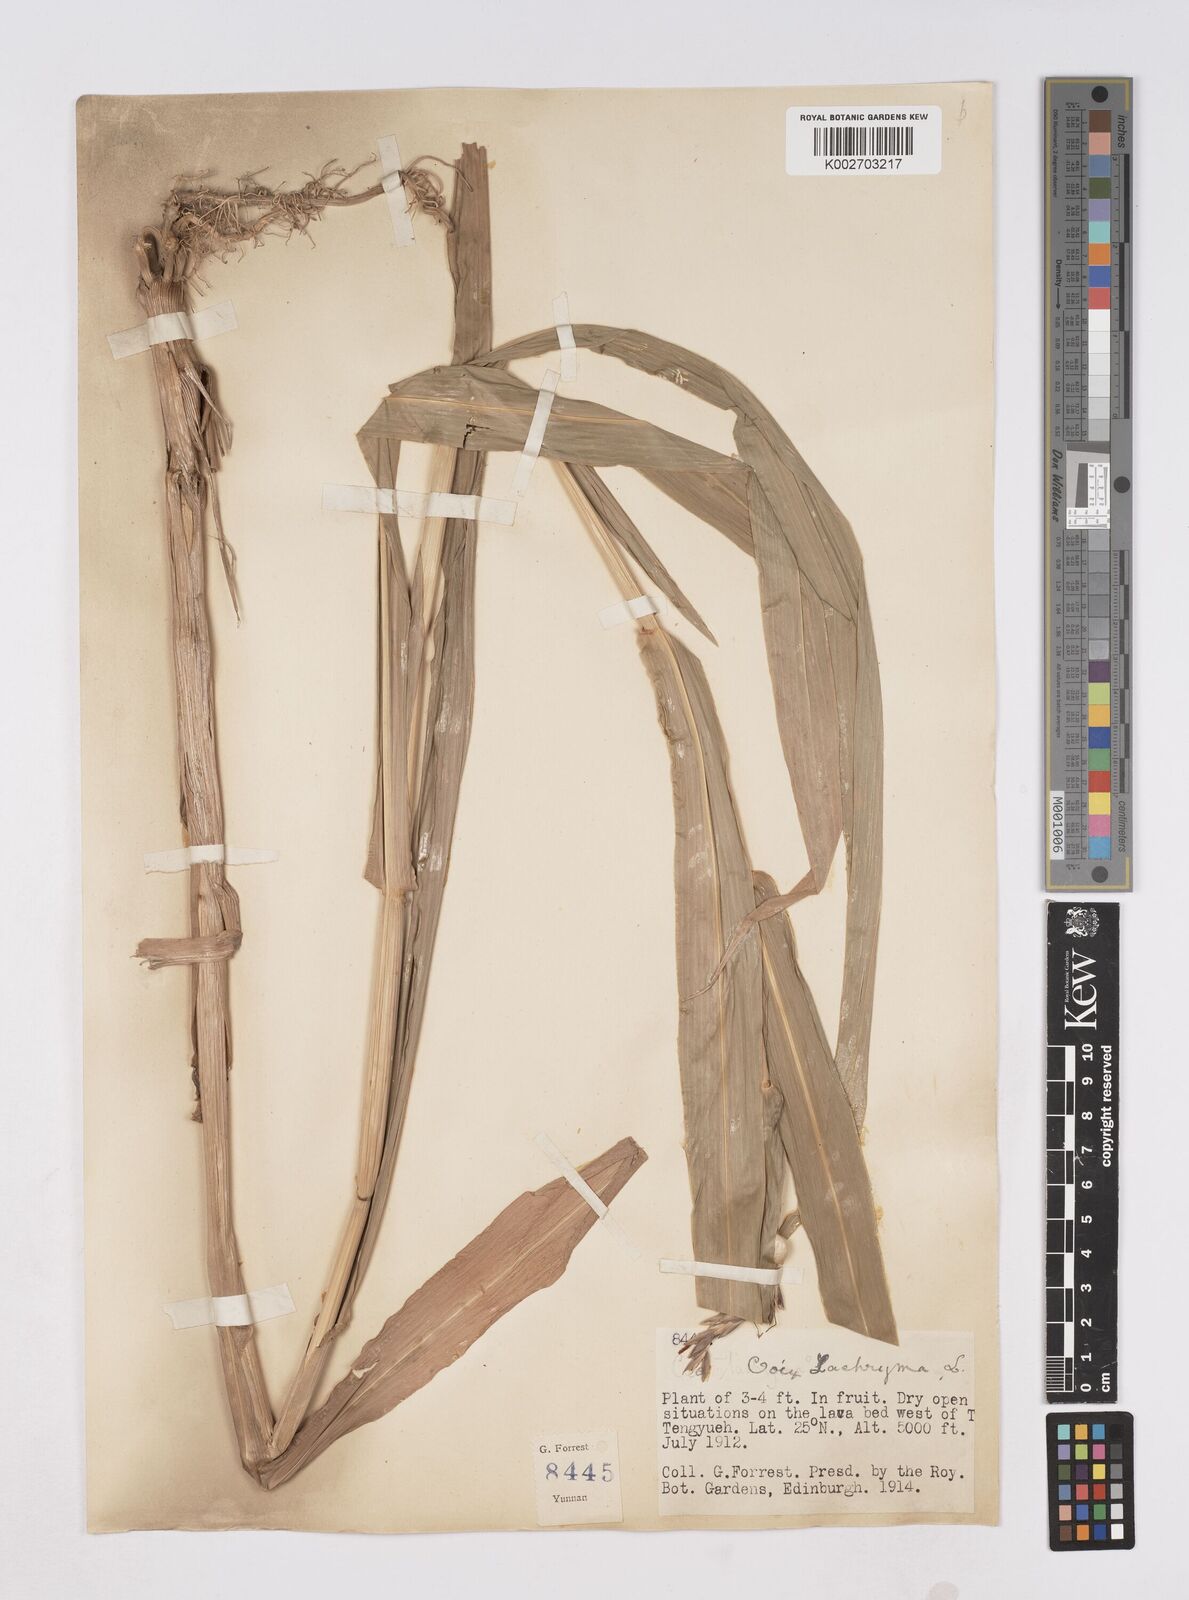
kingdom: Plantae
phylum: Tracheophyta
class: Liliopsida
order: Poales
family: Poaceae
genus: Coix
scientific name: Coix lacryma-jobi
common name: Job's tears
